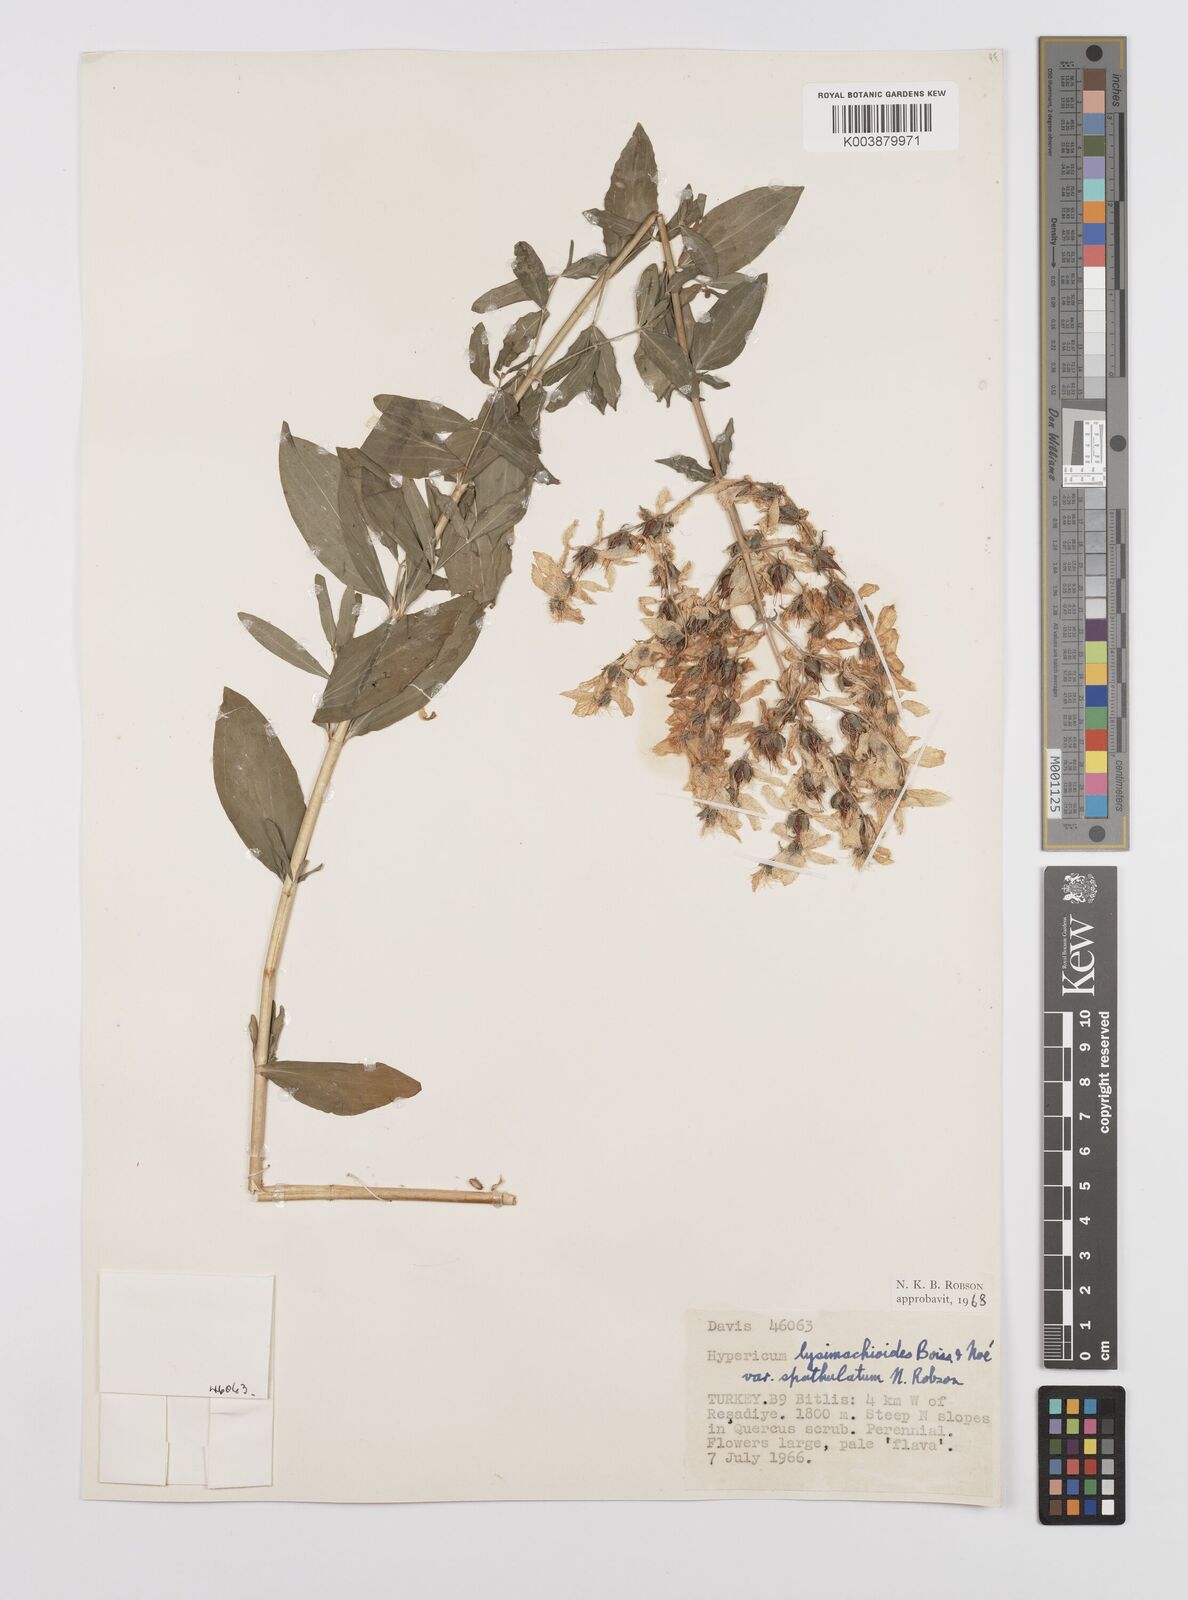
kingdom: Plantae
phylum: Tracheophyta
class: Magnoliopsida
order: Malpighiales
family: Hypericaceae
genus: Hypericum
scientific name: Hypericum lysimachioides
